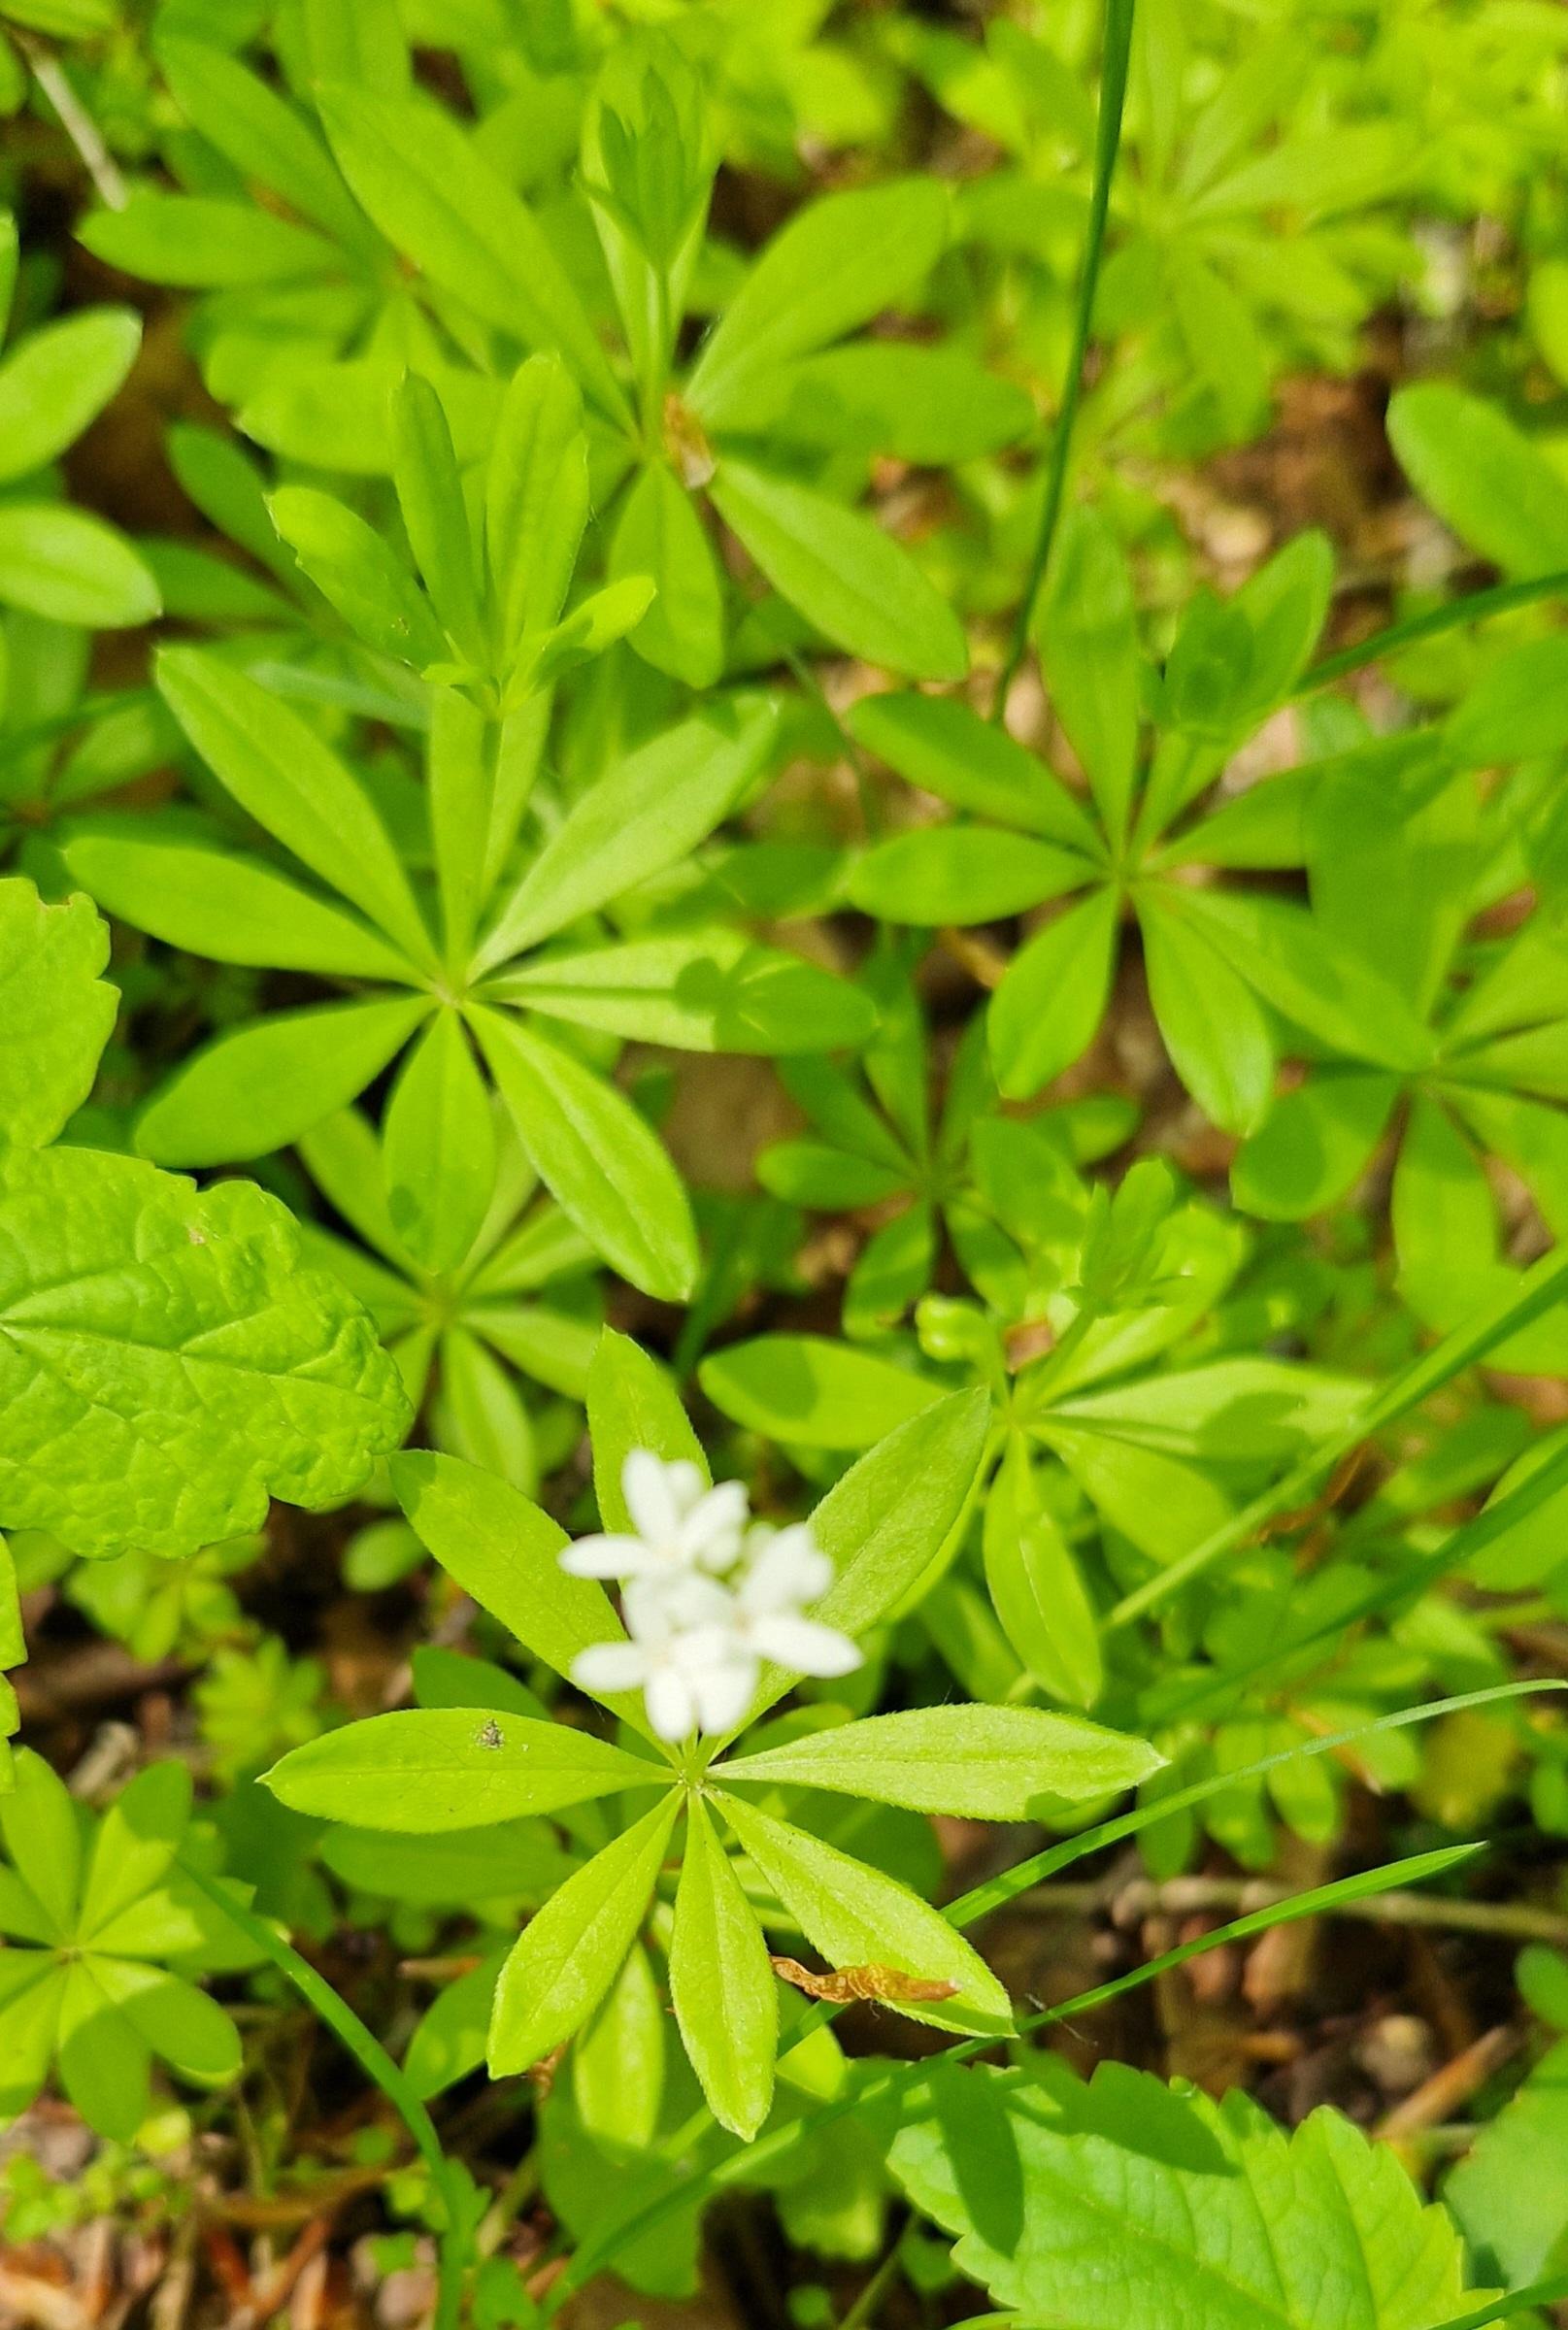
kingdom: Plantae
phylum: Tracheophyta
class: Magnoliopsida
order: Gentianales
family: Rubiaceae
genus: Galium
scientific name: Galium odoratum
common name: Skovmærke
